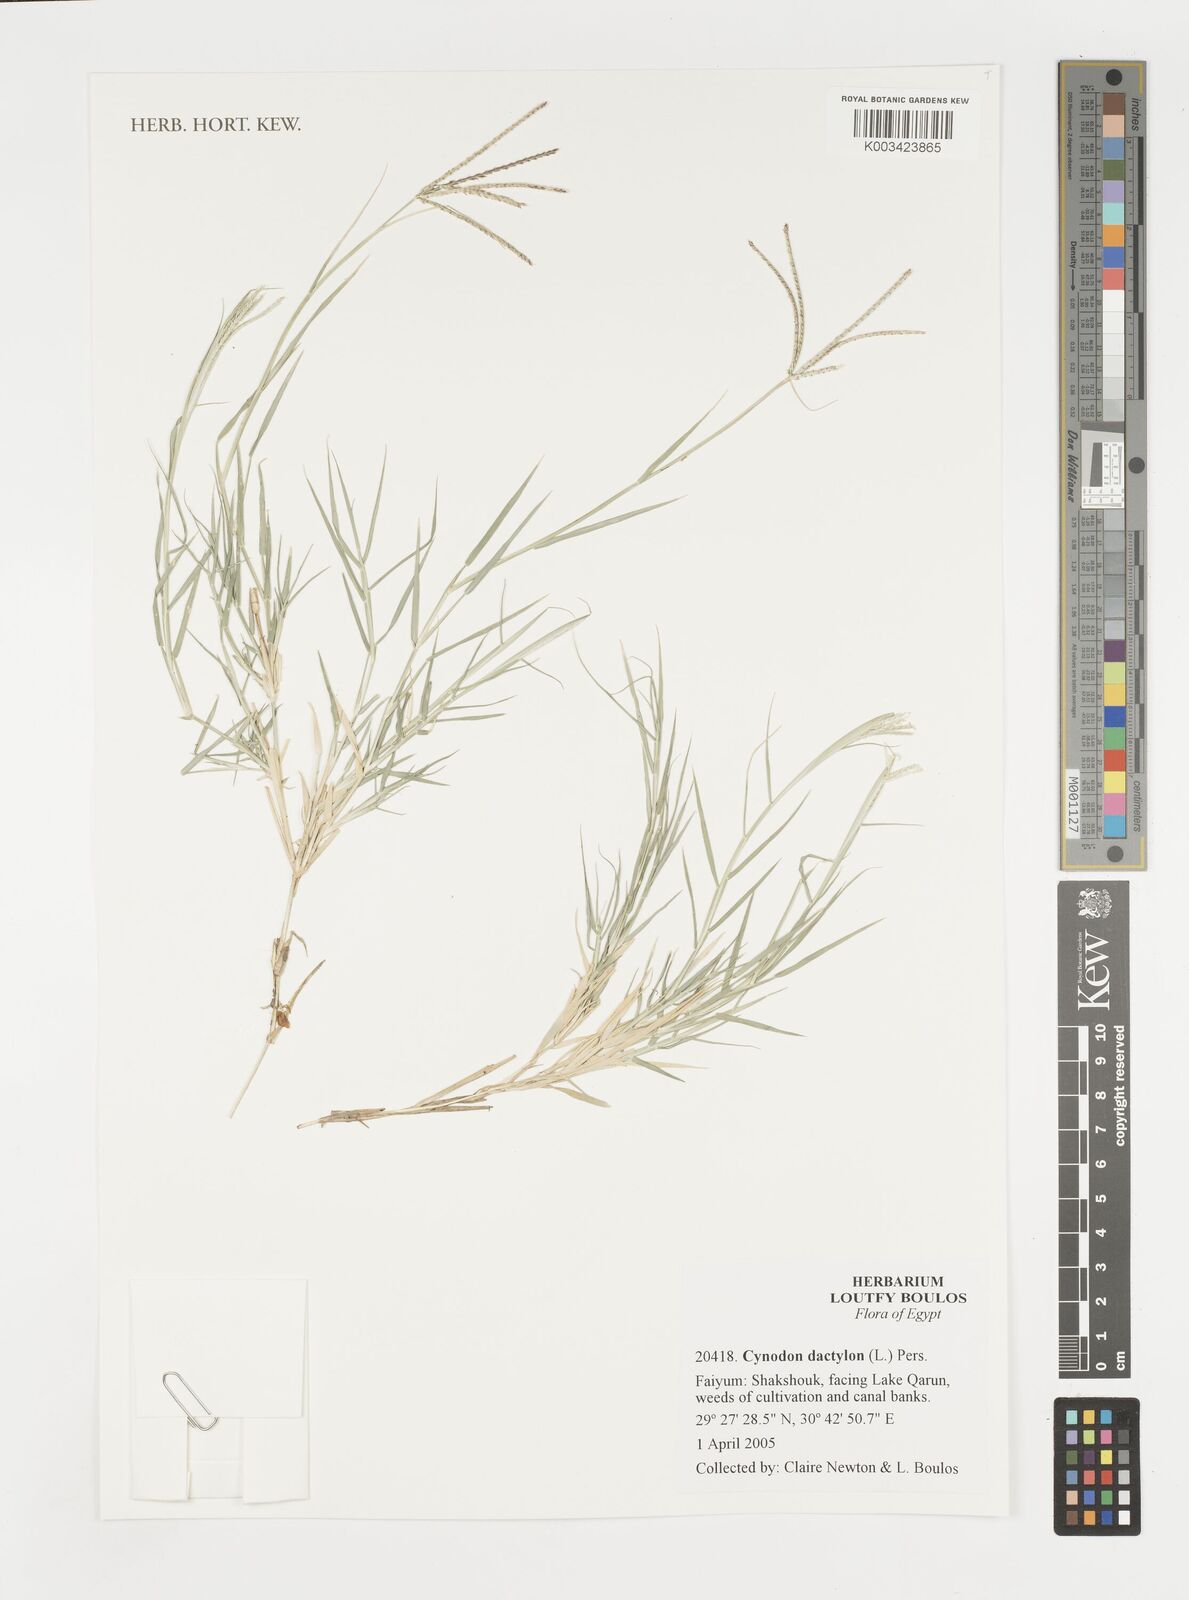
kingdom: Plantae
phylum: Tracheophyta
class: Liliopsida
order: Poales
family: Poaceae
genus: Cynodon
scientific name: Cynodon dactylon
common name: Bermuda grass
